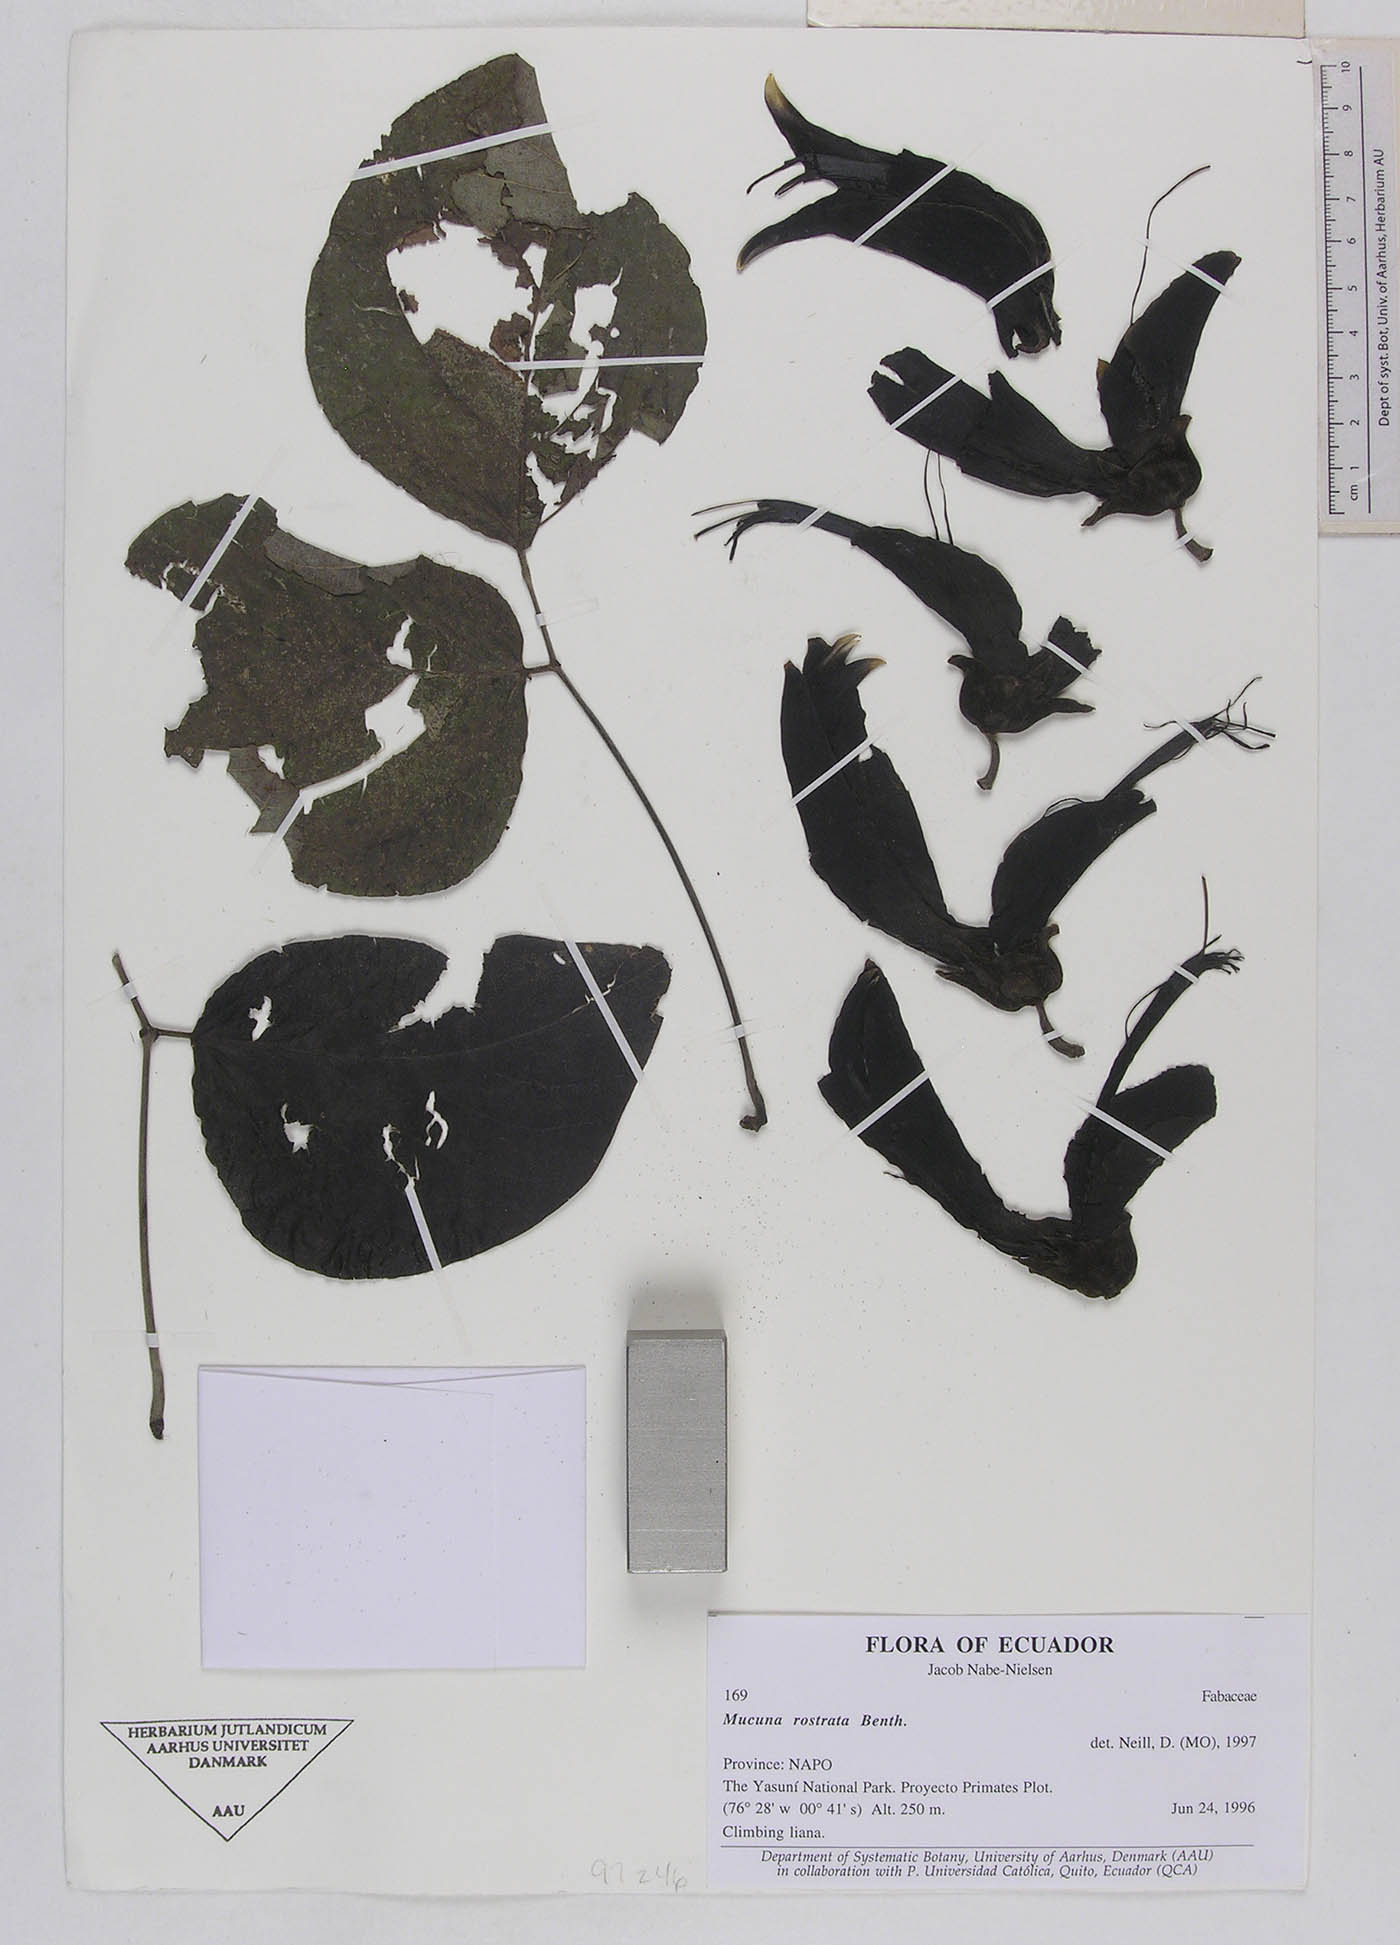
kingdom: Plantae
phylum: Tracheophyta
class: Magnoliopsida
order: Fabales
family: Fabaceae
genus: Mucuna
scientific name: Mucuna rostrata
